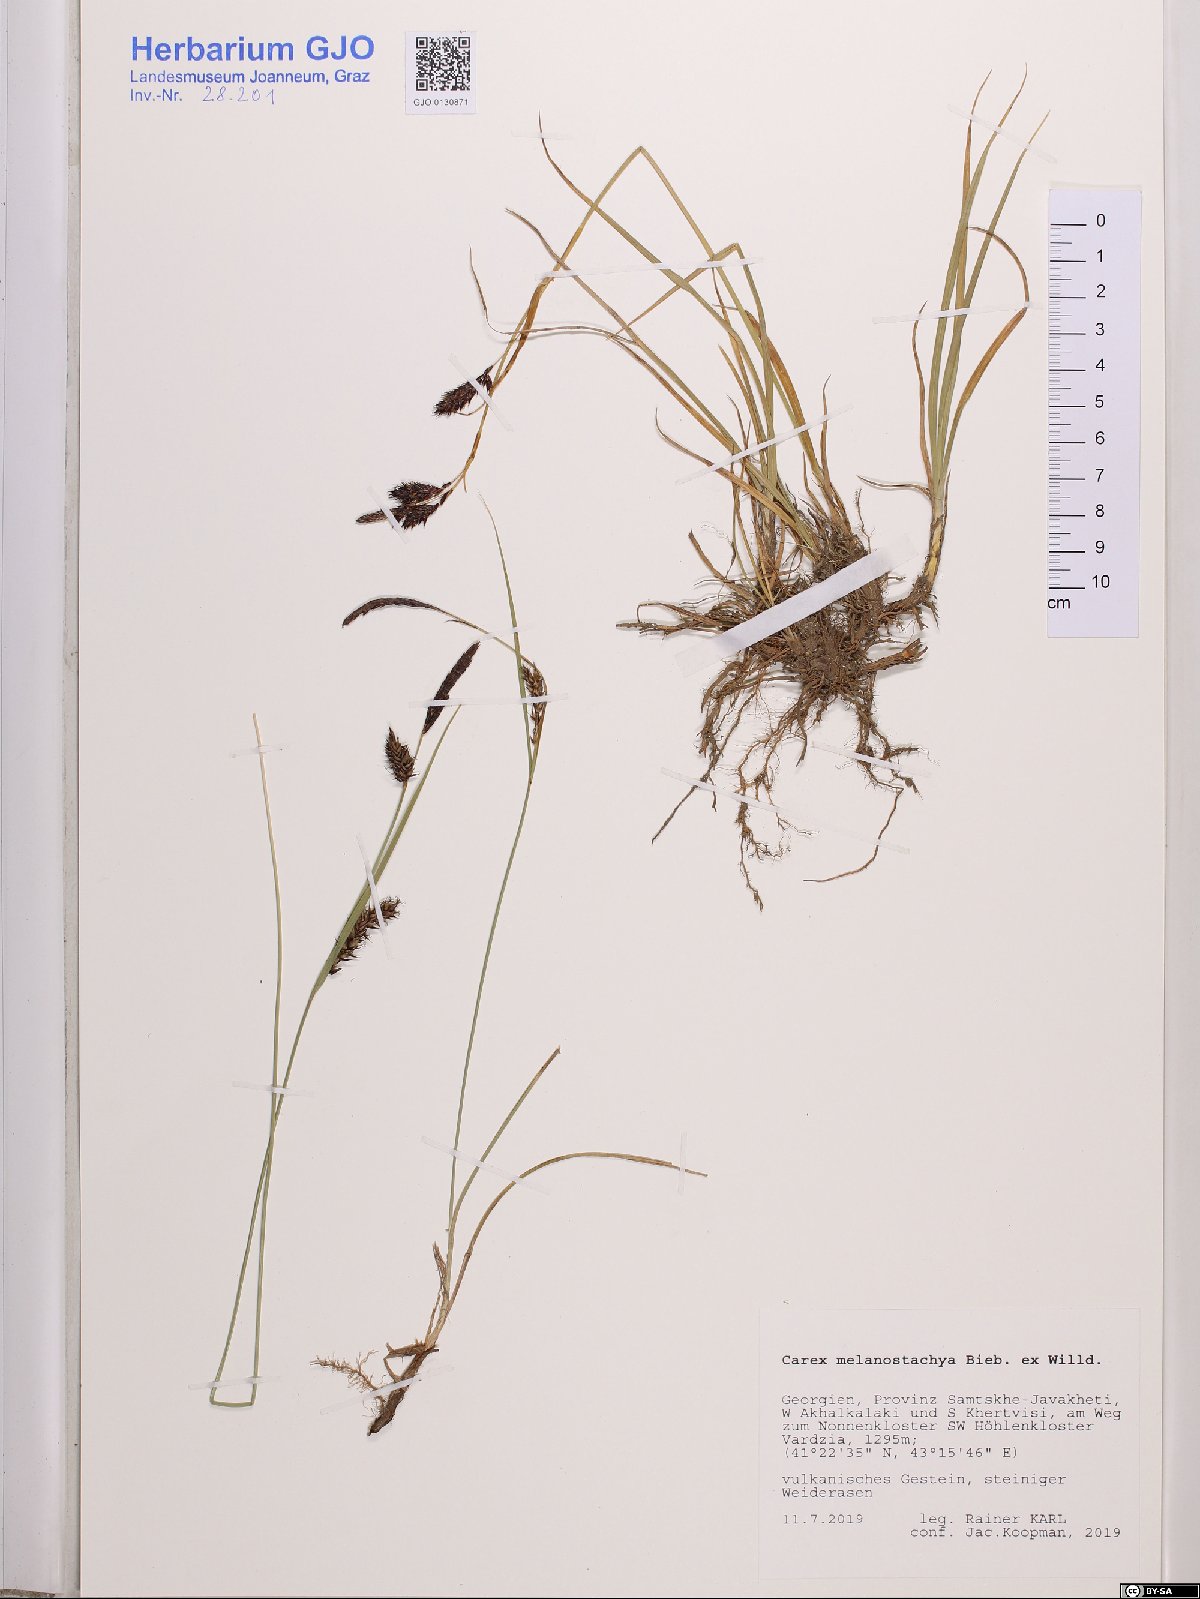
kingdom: Plantae
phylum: Tracheophyta
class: Liliopsida
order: Poales
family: Cyperaceae
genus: Carex
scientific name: Carex melanostachya
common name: Black-spiked sedge
